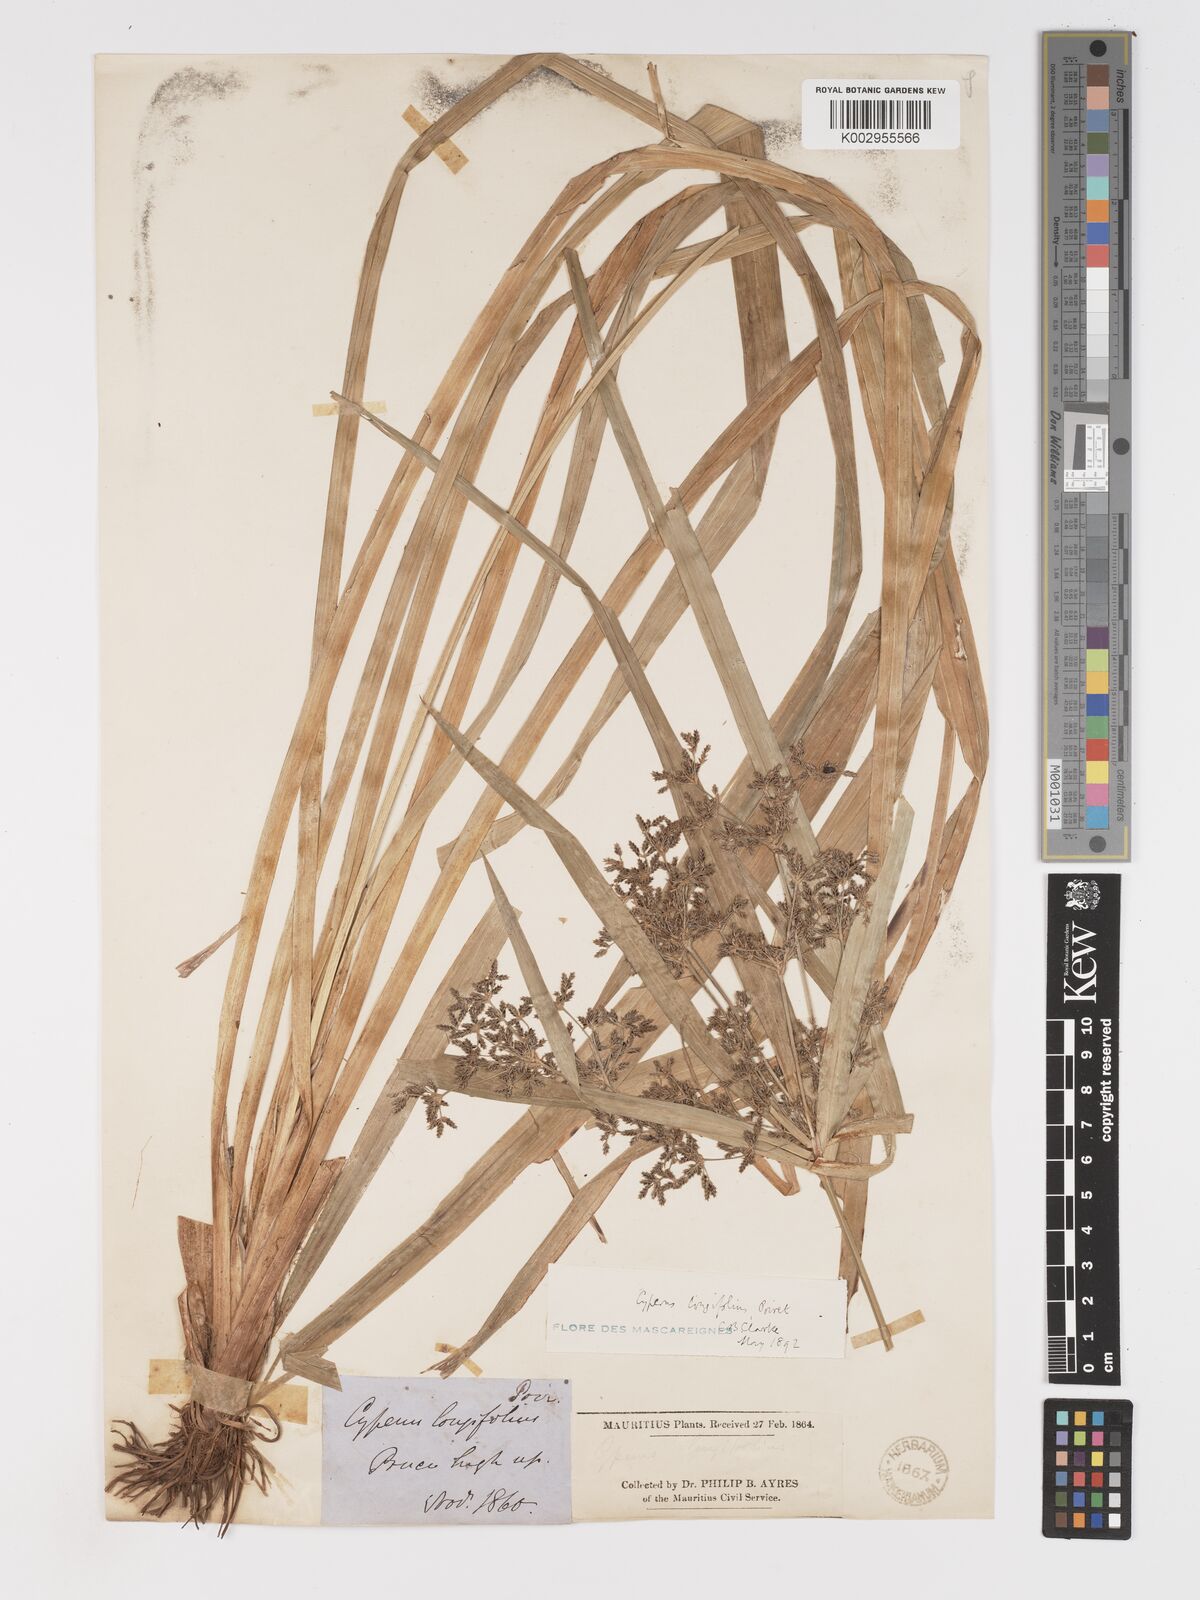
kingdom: Plantae
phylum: Tracheophyta
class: Liliopsida
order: Poales
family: Cyperaceae
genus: Cyperus
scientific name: Cyperus longifolius
